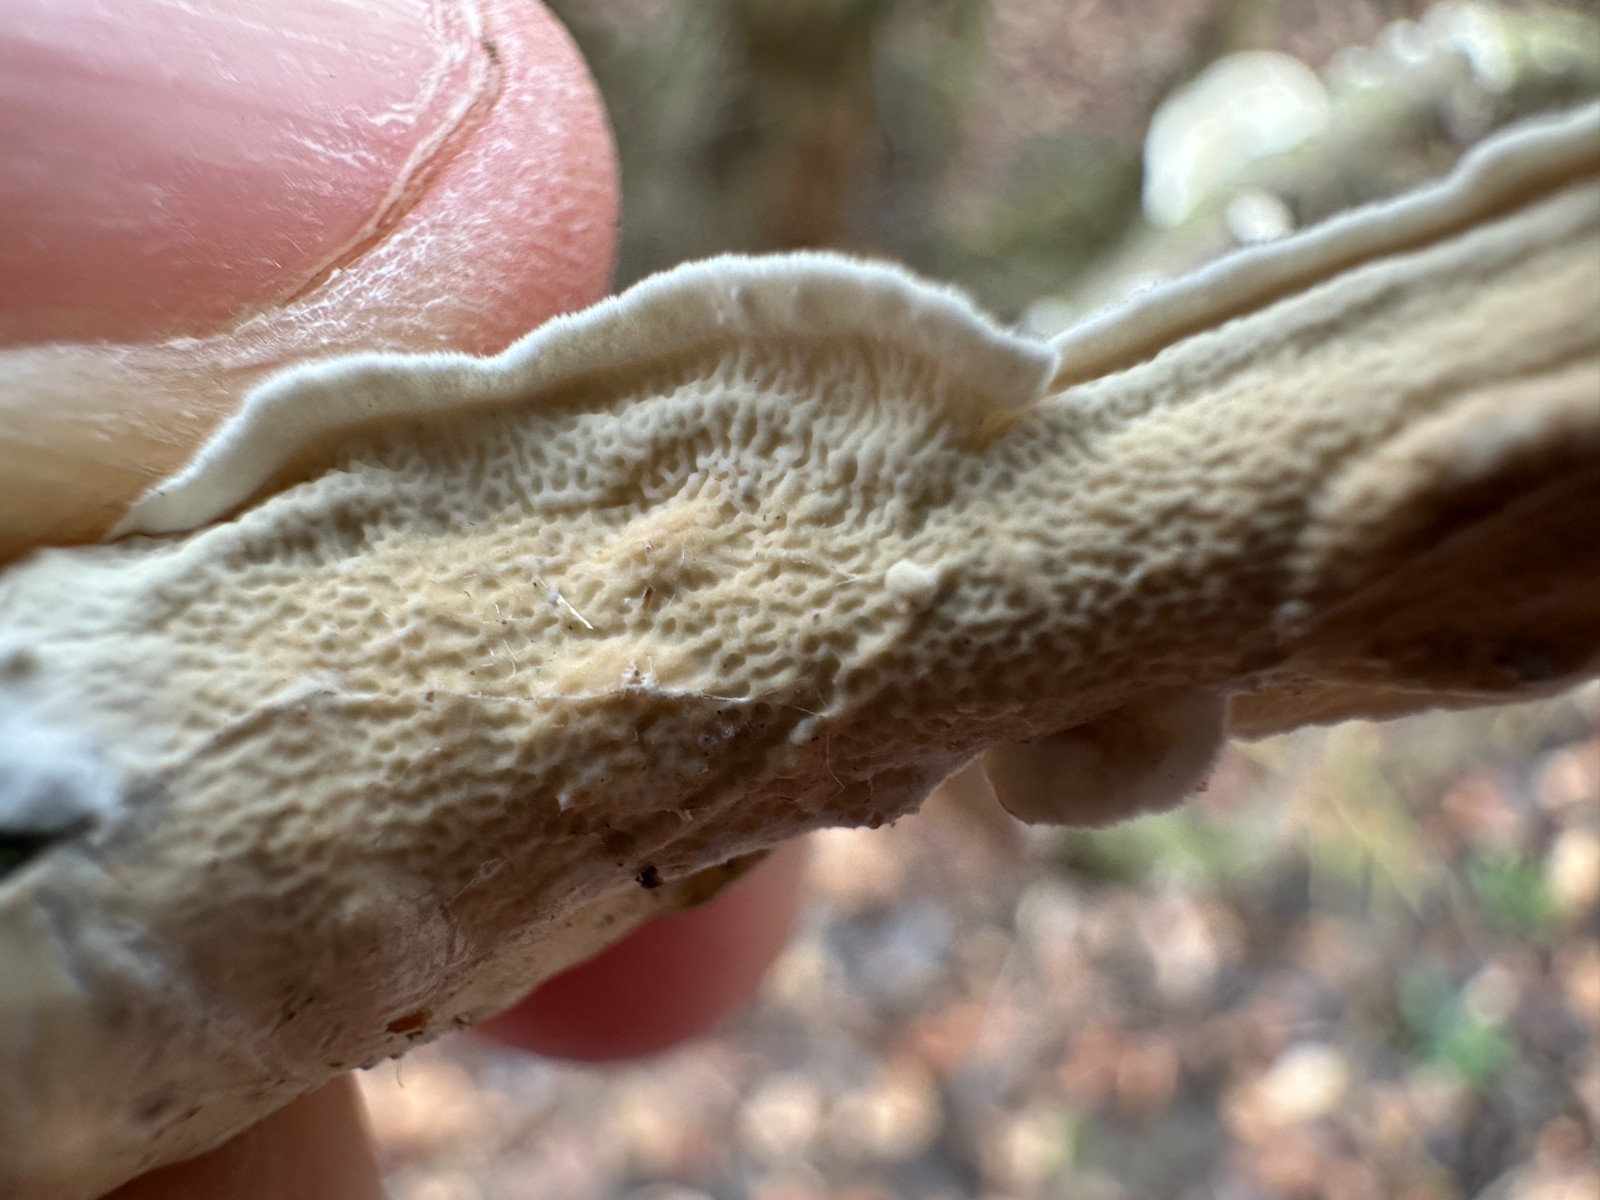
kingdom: Fungi
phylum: Basidiomycota
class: Agaricomycetes
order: Polyporales
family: Irpicaceae
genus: Byssomerulius
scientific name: Byssomerulius corium
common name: læder-åresvamp
